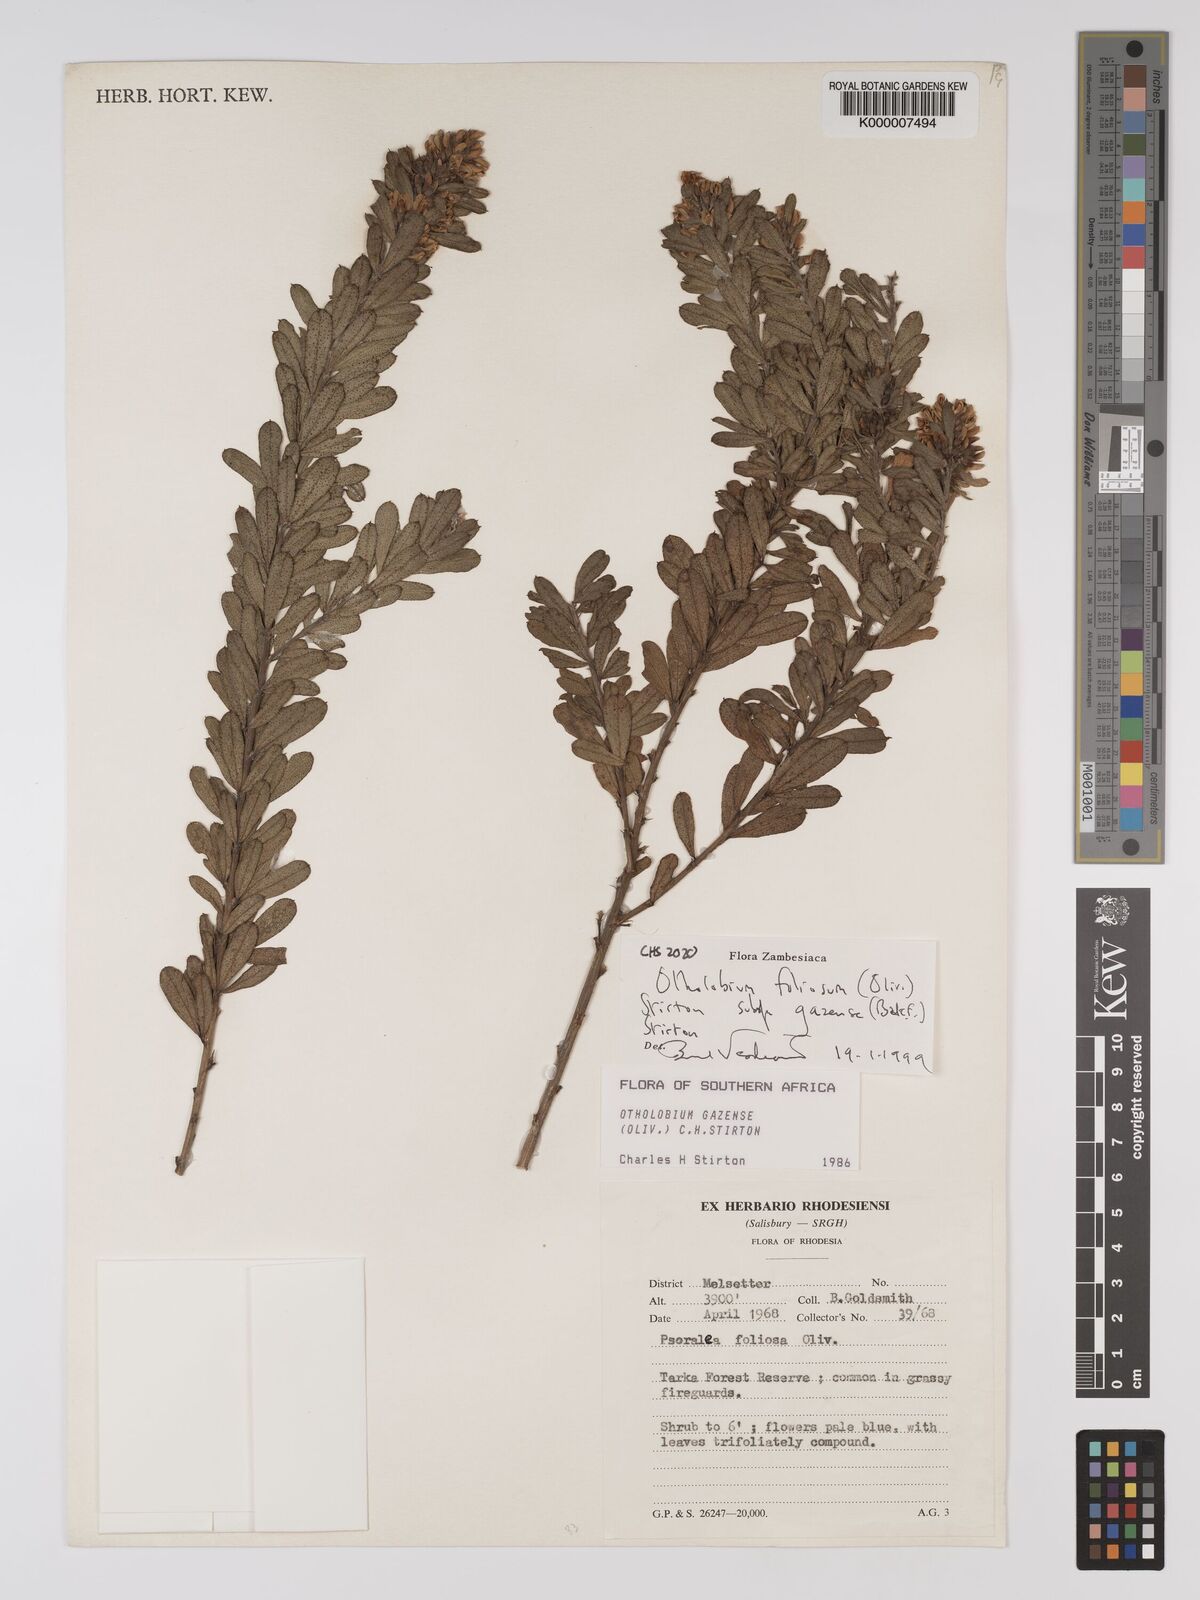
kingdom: Plantae
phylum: Tracheophyta
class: Magnoliopsida
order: Fabales
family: Fabaceae
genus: Psoralea
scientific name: Psoralea foliosa
